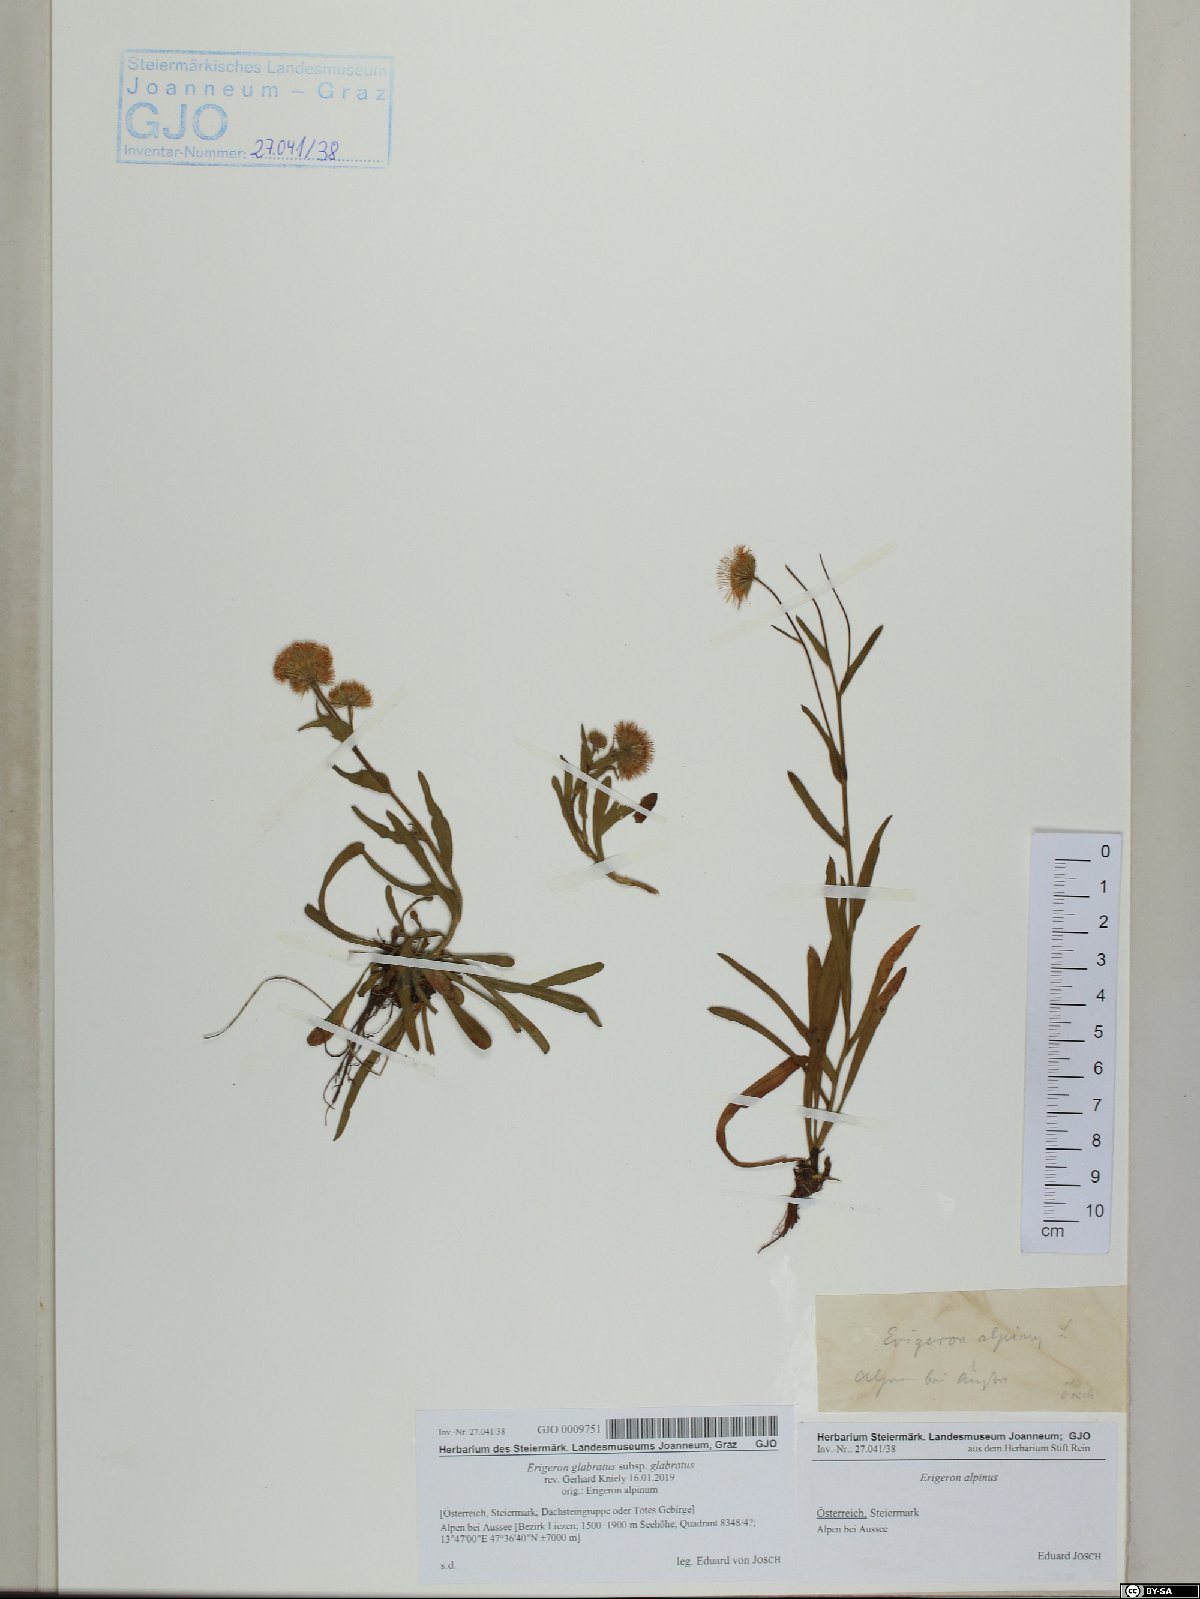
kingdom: Plantae
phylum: Tracheophyta
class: Magnoliopsida
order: Asterales
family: Asteraceae
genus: Erigeron
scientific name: Erigeron glabratus
